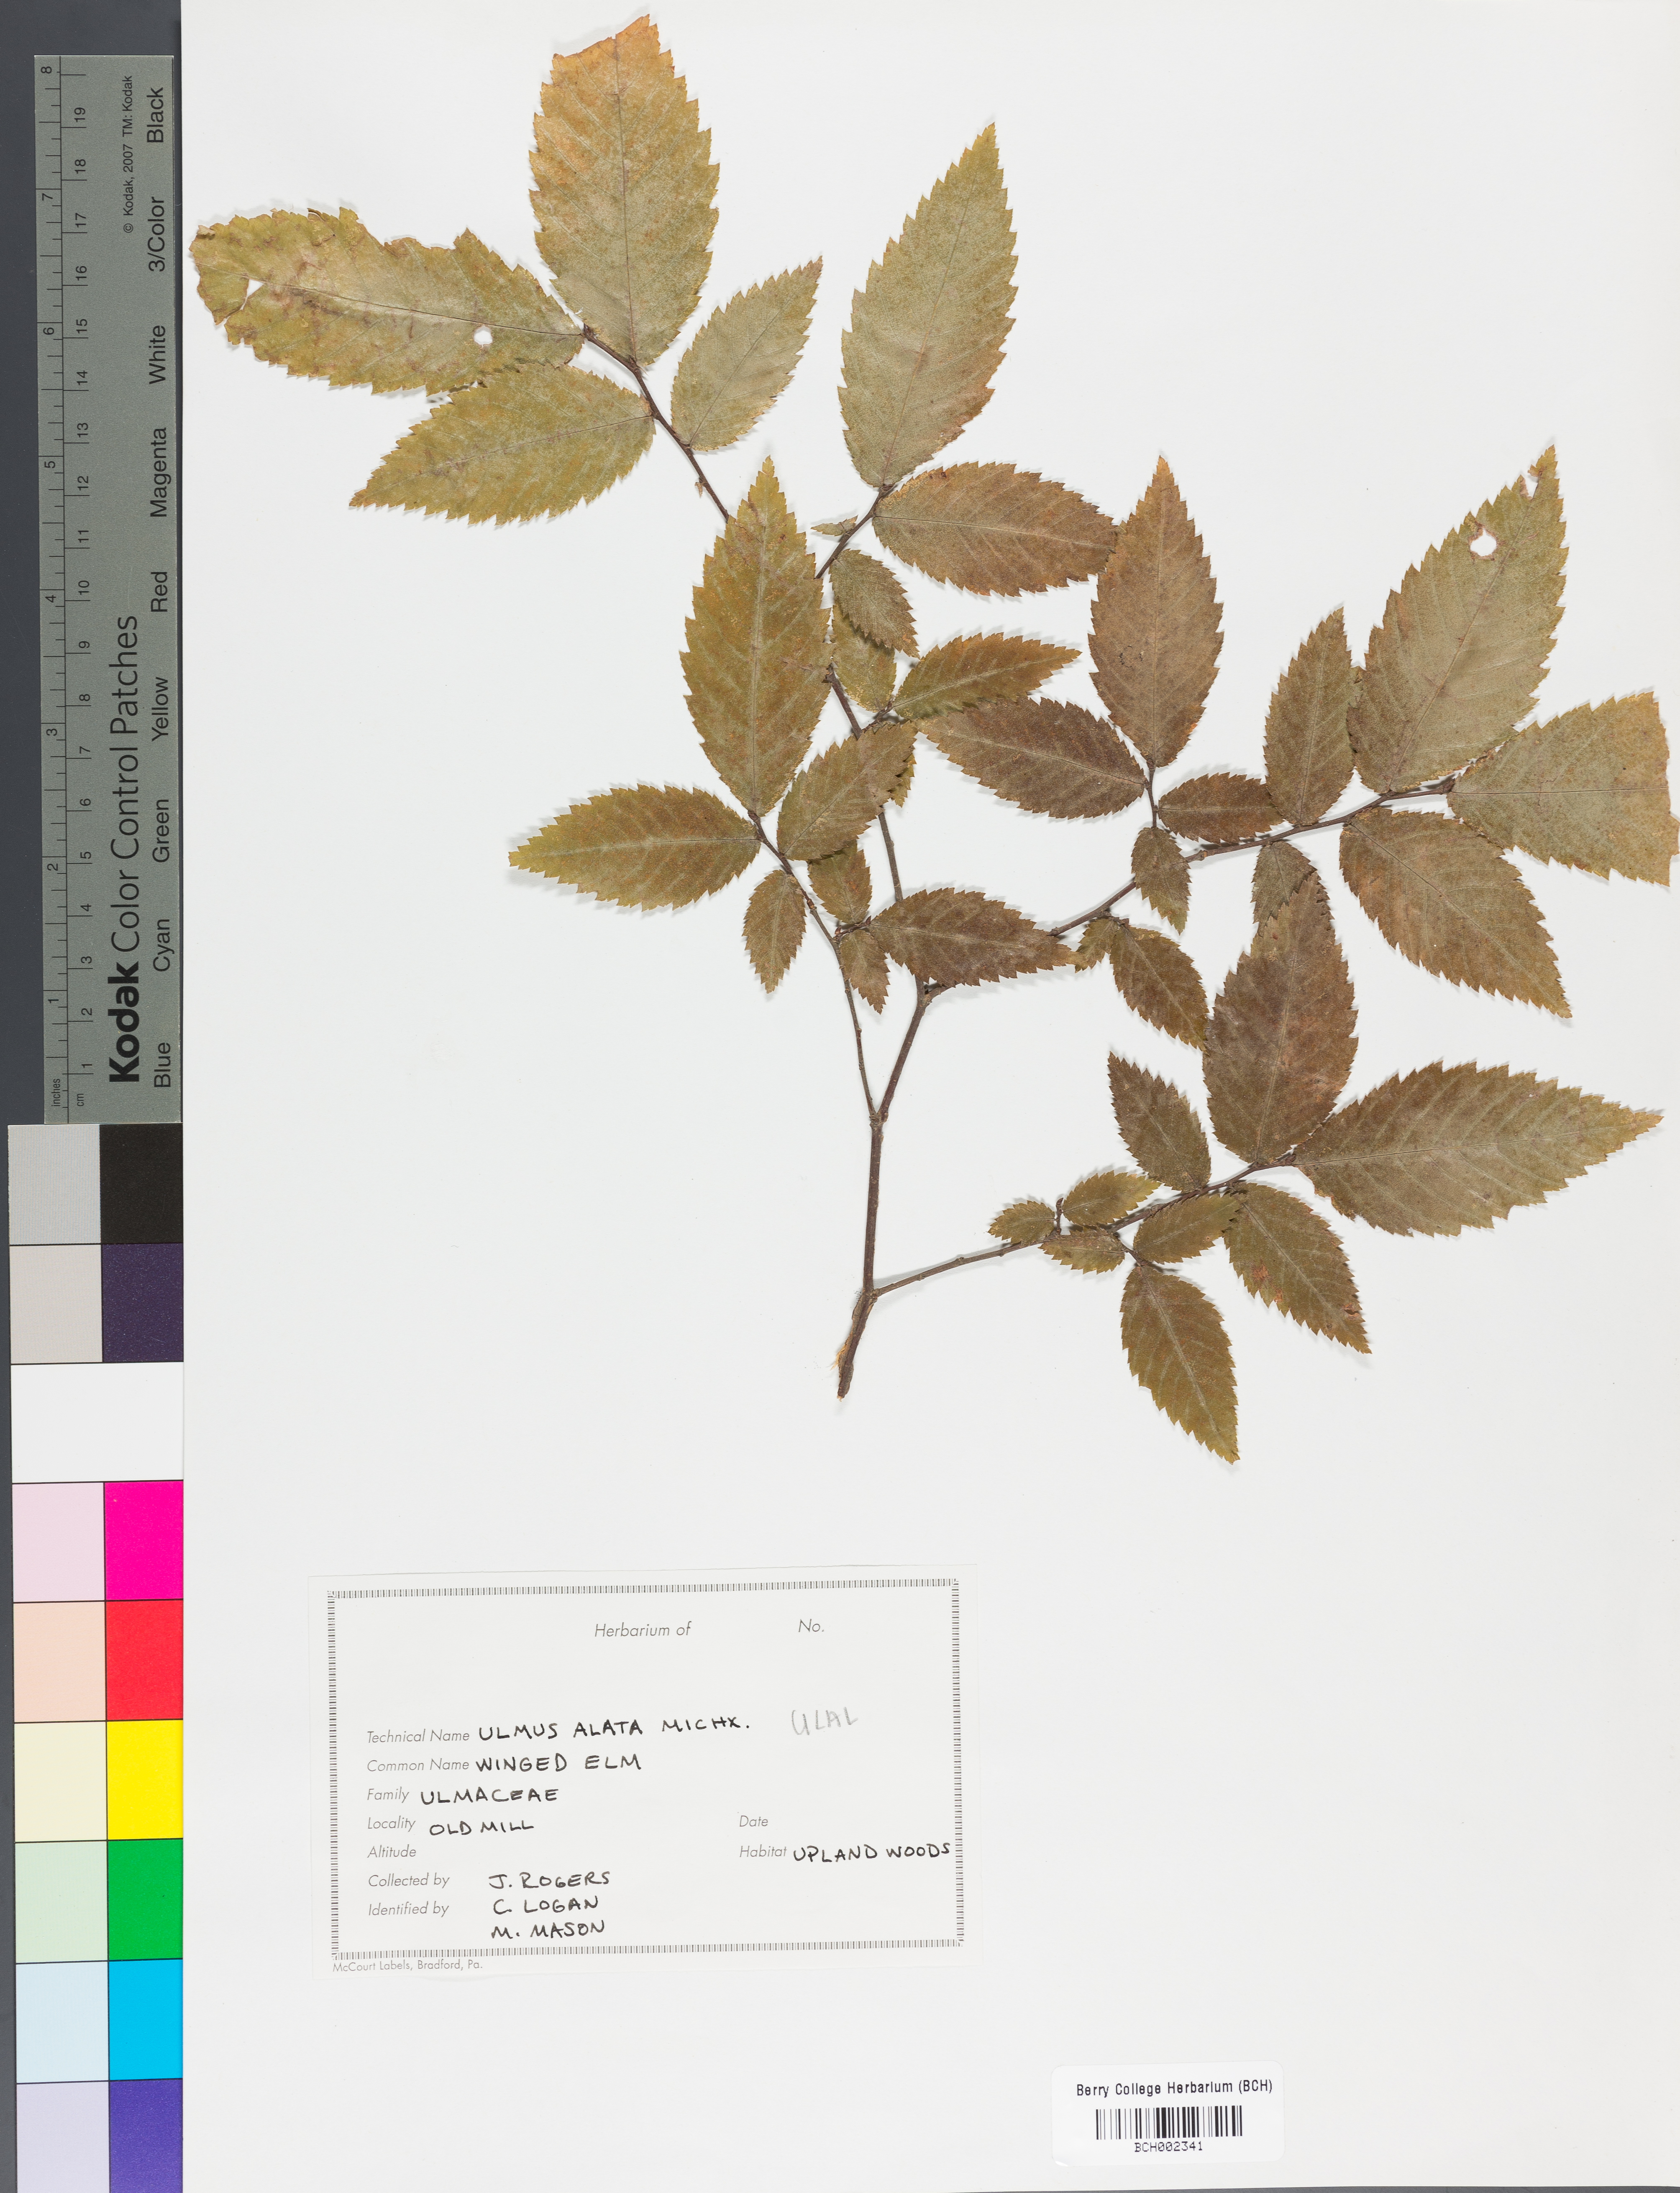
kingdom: Plantae
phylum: Tracheophyta
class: Magnoliopsida
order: Rosales
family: Ulmaceae
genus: Ulmus
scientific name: Ulmus alata
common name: Winged elm
